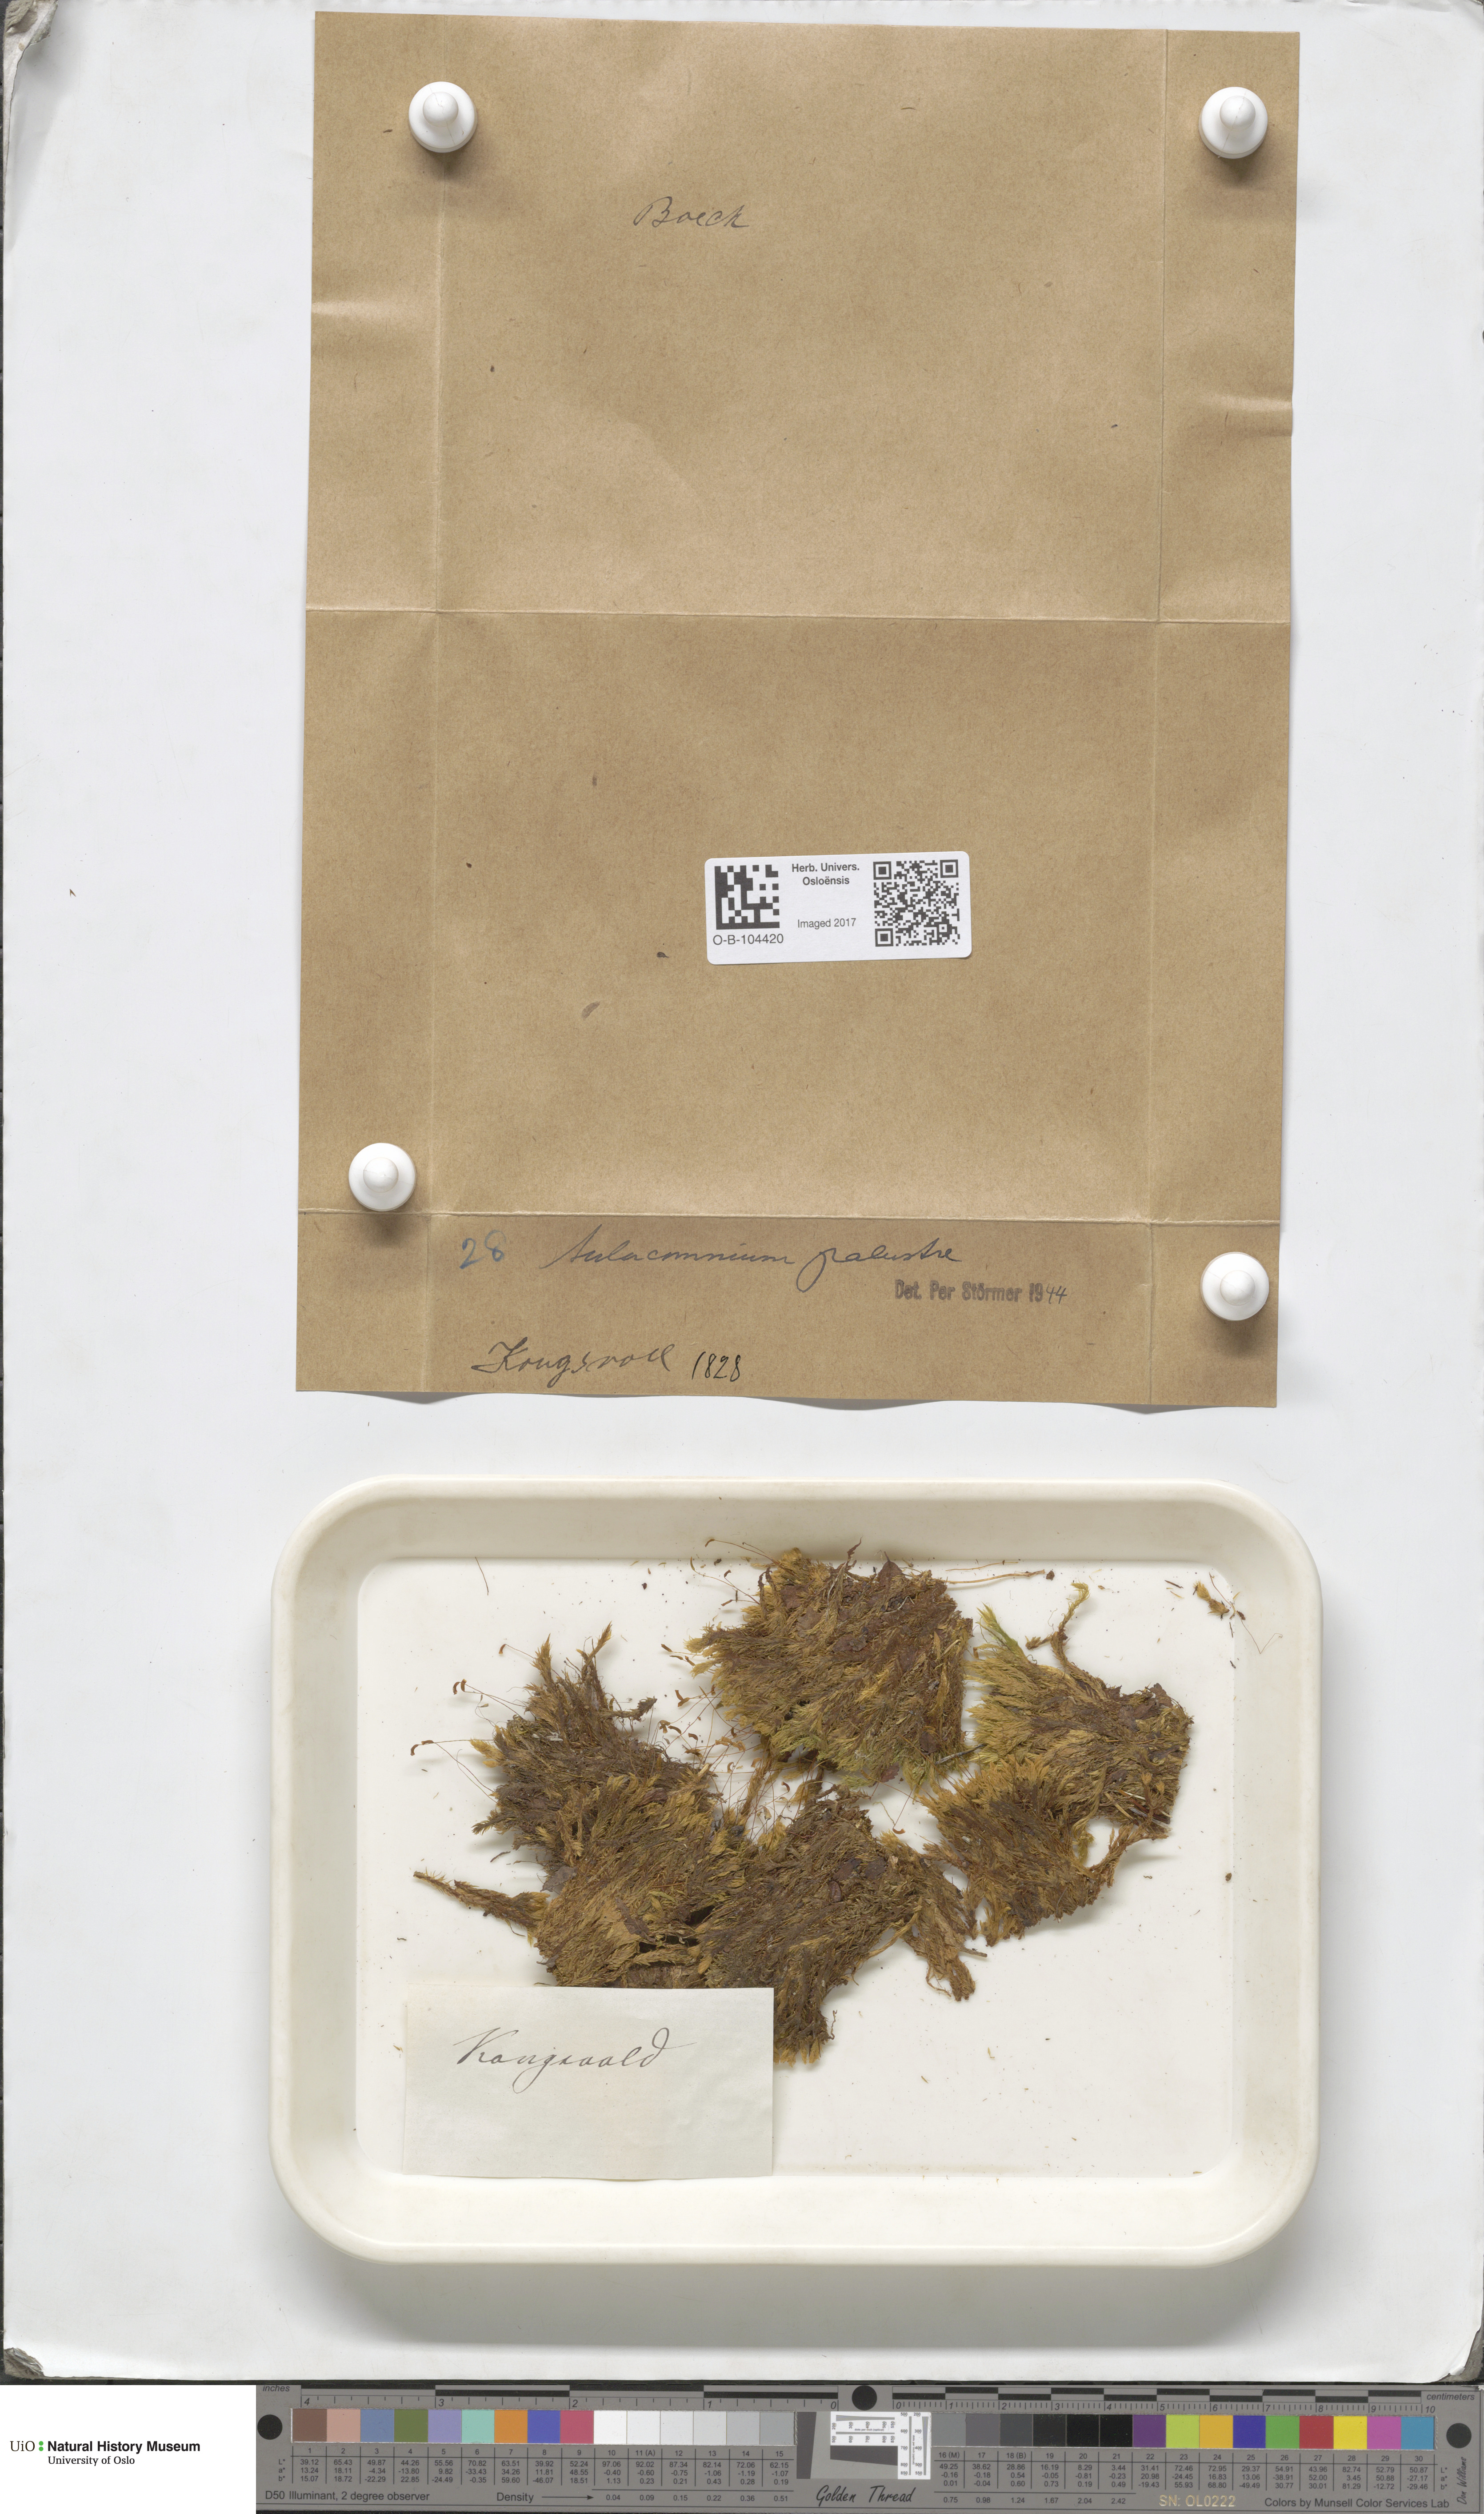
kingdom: Plantae
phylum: Bryophyta
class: Bryopsida
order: Aulacomniales
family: Aulacomniaceae
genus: Aulacomnium
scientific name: Aulacomnium palustre
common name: Bog groove-moss
